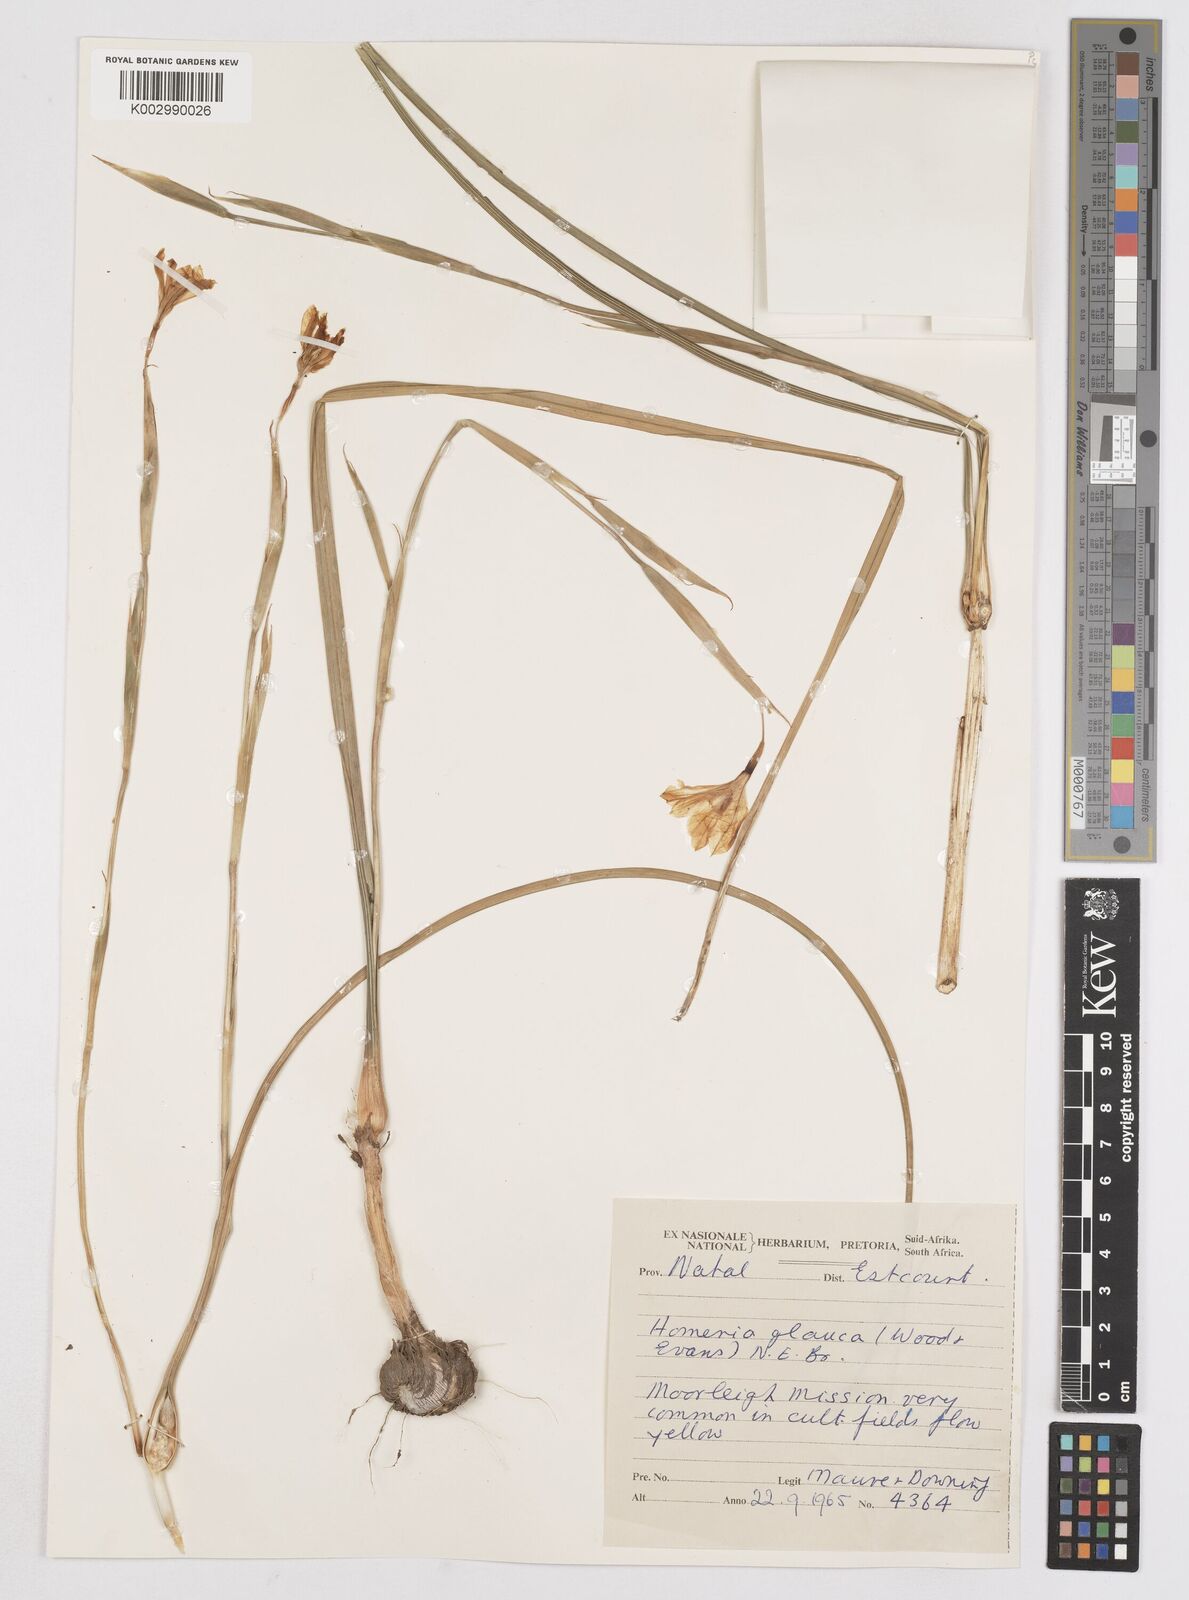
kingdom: Plantae
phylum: Tracheophyta
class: Liliopsida
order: Asparagales
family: Iridaceae
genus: Moraea
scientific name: Moraea pallida
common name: Yellow tulp
